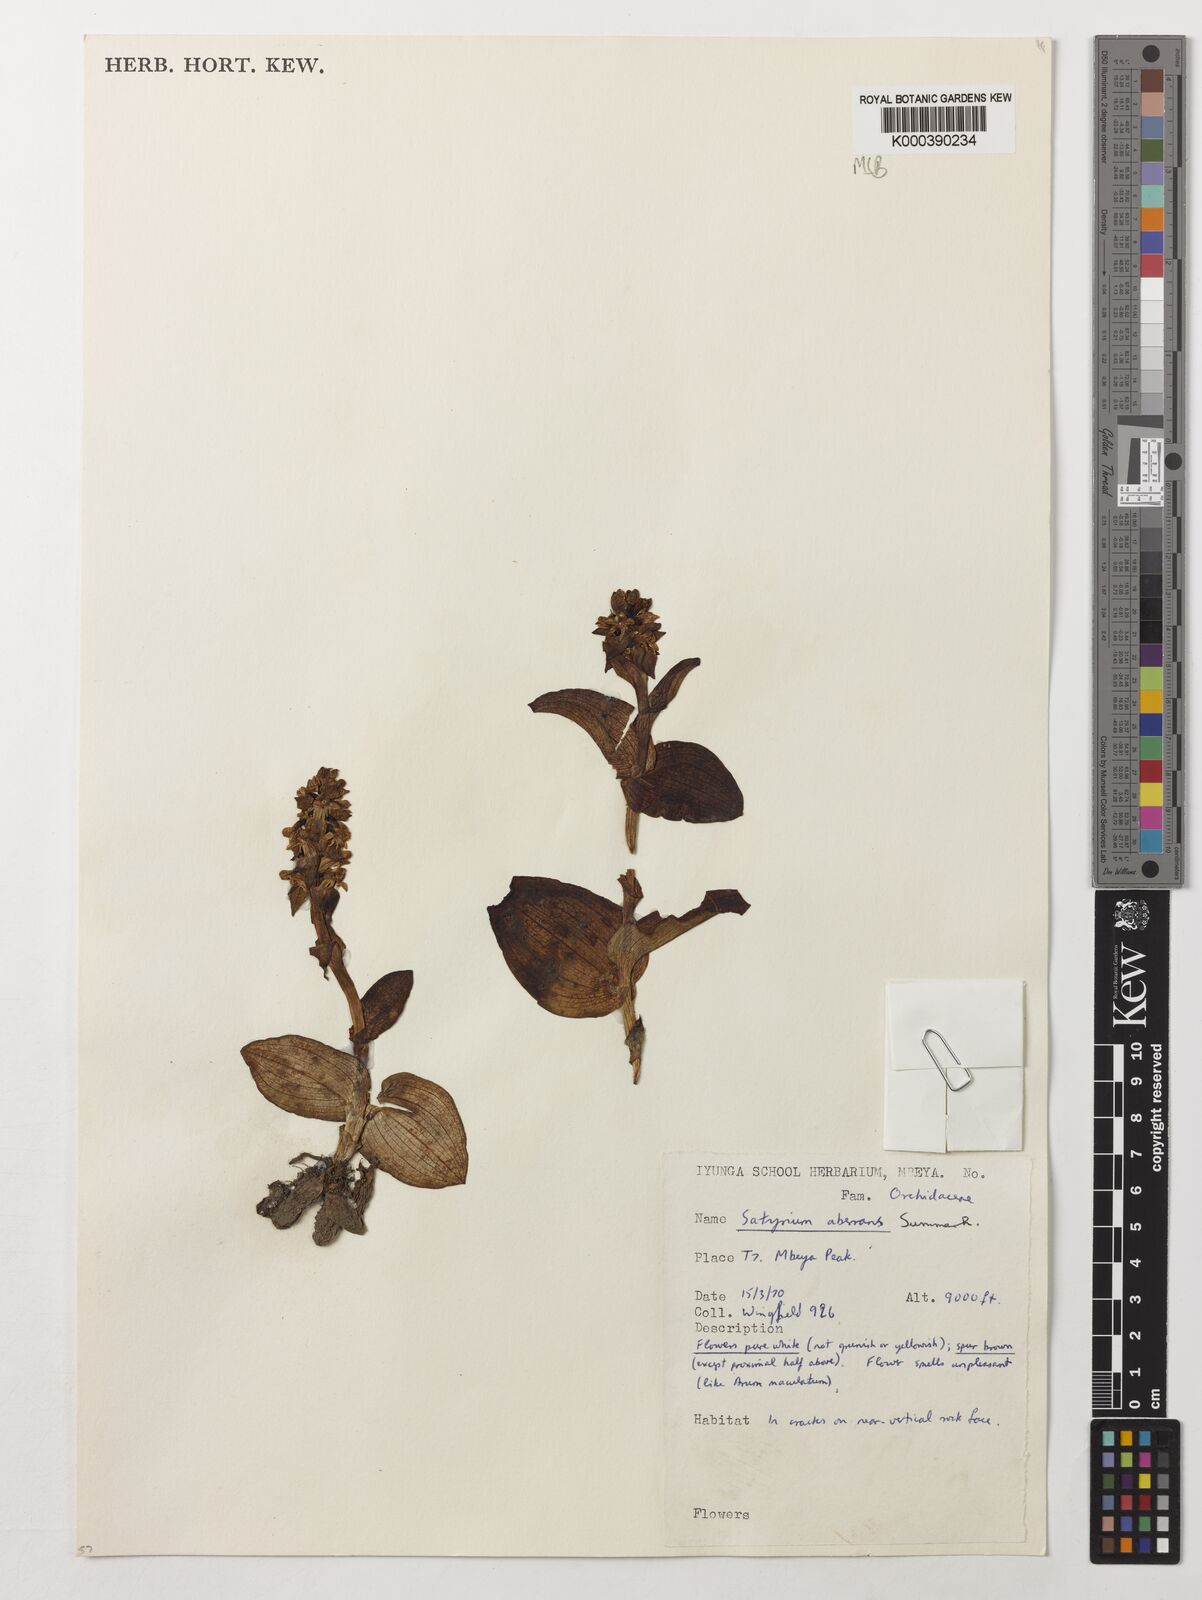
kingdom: Plantae
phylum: Tracheophyta
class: Liliopsida
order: Asparagales
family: Orchidaceae
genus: Satyrium
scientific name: Satyrium aberrans
